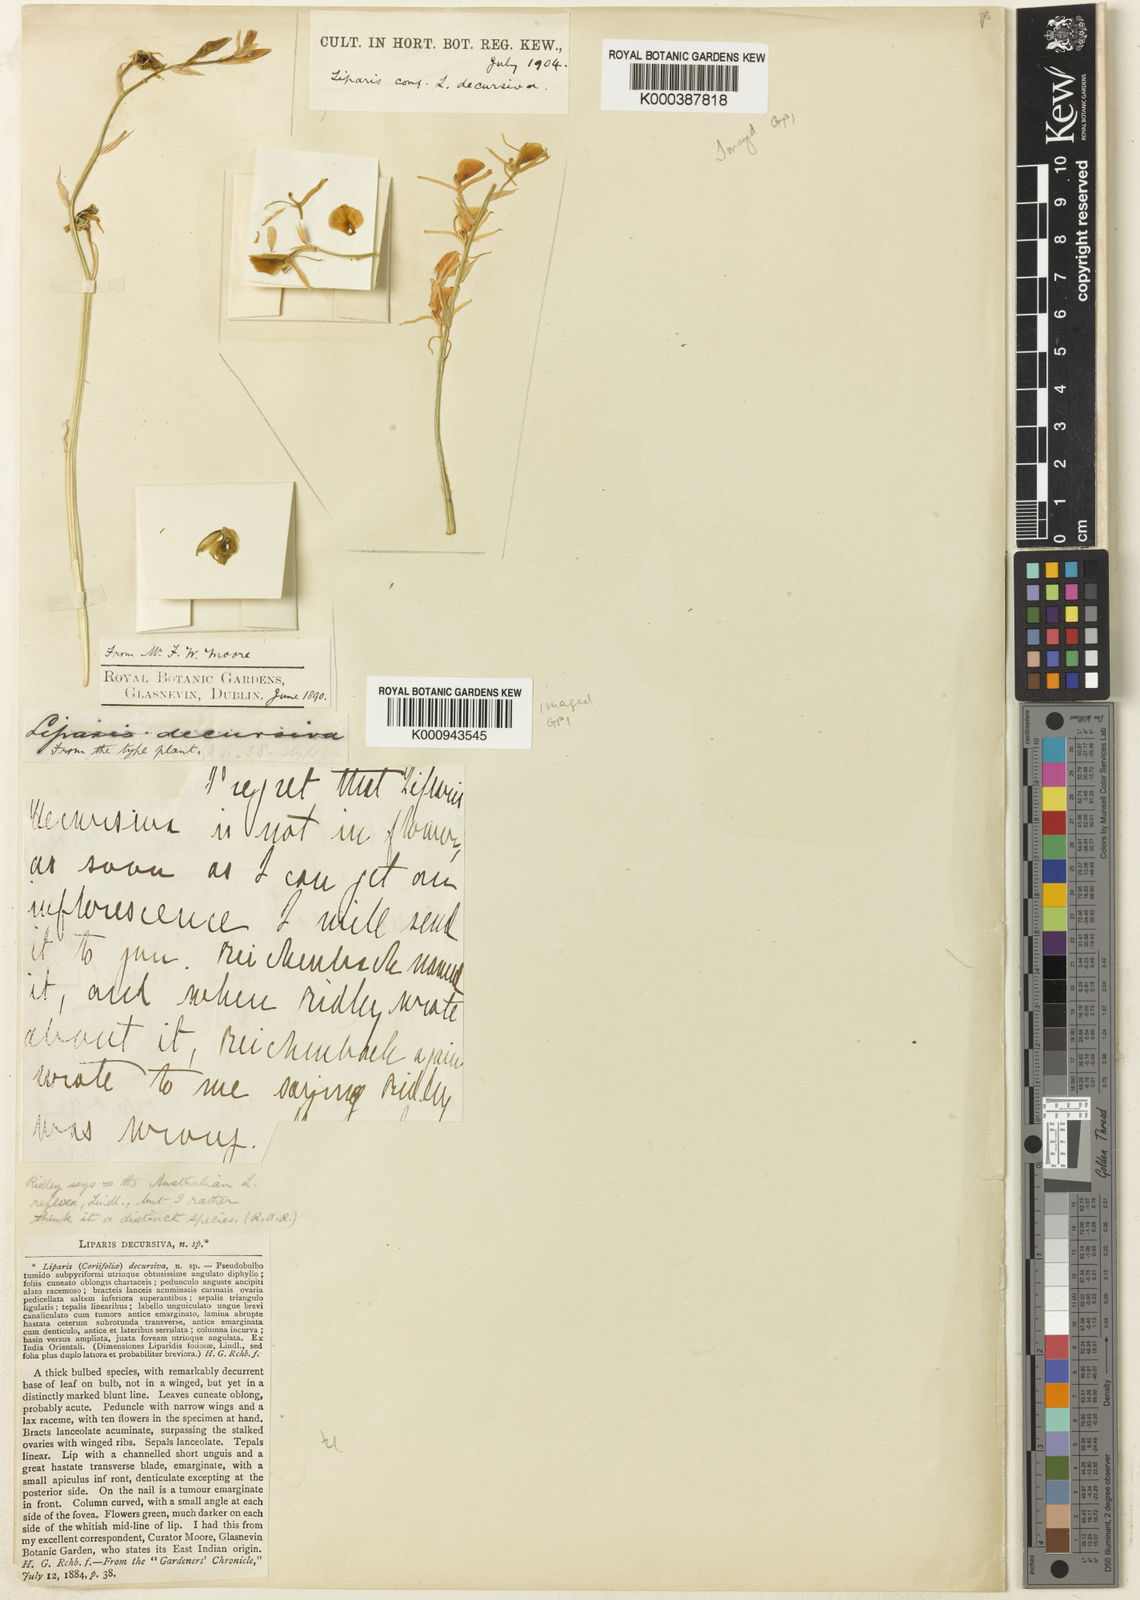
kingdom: Plantae
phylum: Tracheophyta
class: Liliopsida
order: Asparagales
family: Orchidaceae
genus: Liparis
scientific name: Liparis reflexa
